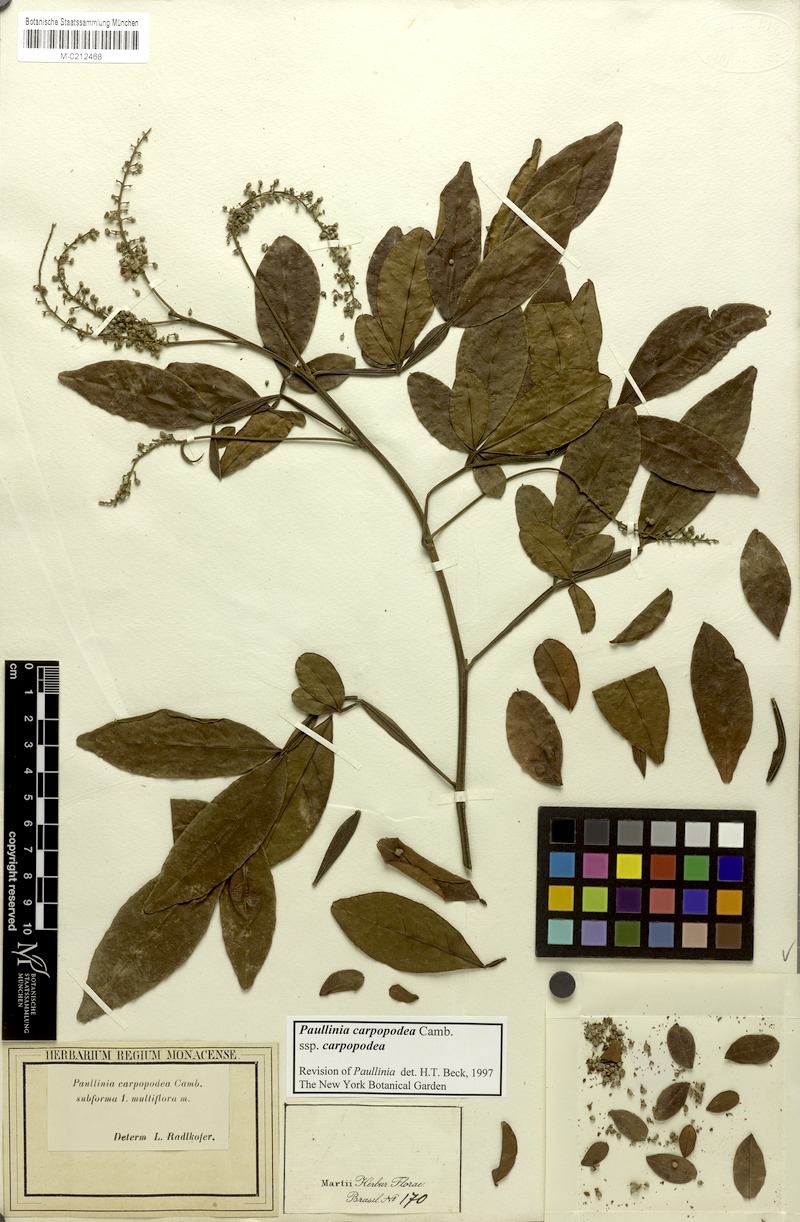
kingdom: Plantae
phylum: Tracheophyta
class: Magnoliopsida
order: Sapindales
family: Sapindaceae
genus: Paullinia
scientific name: Paullinia carpopoda
